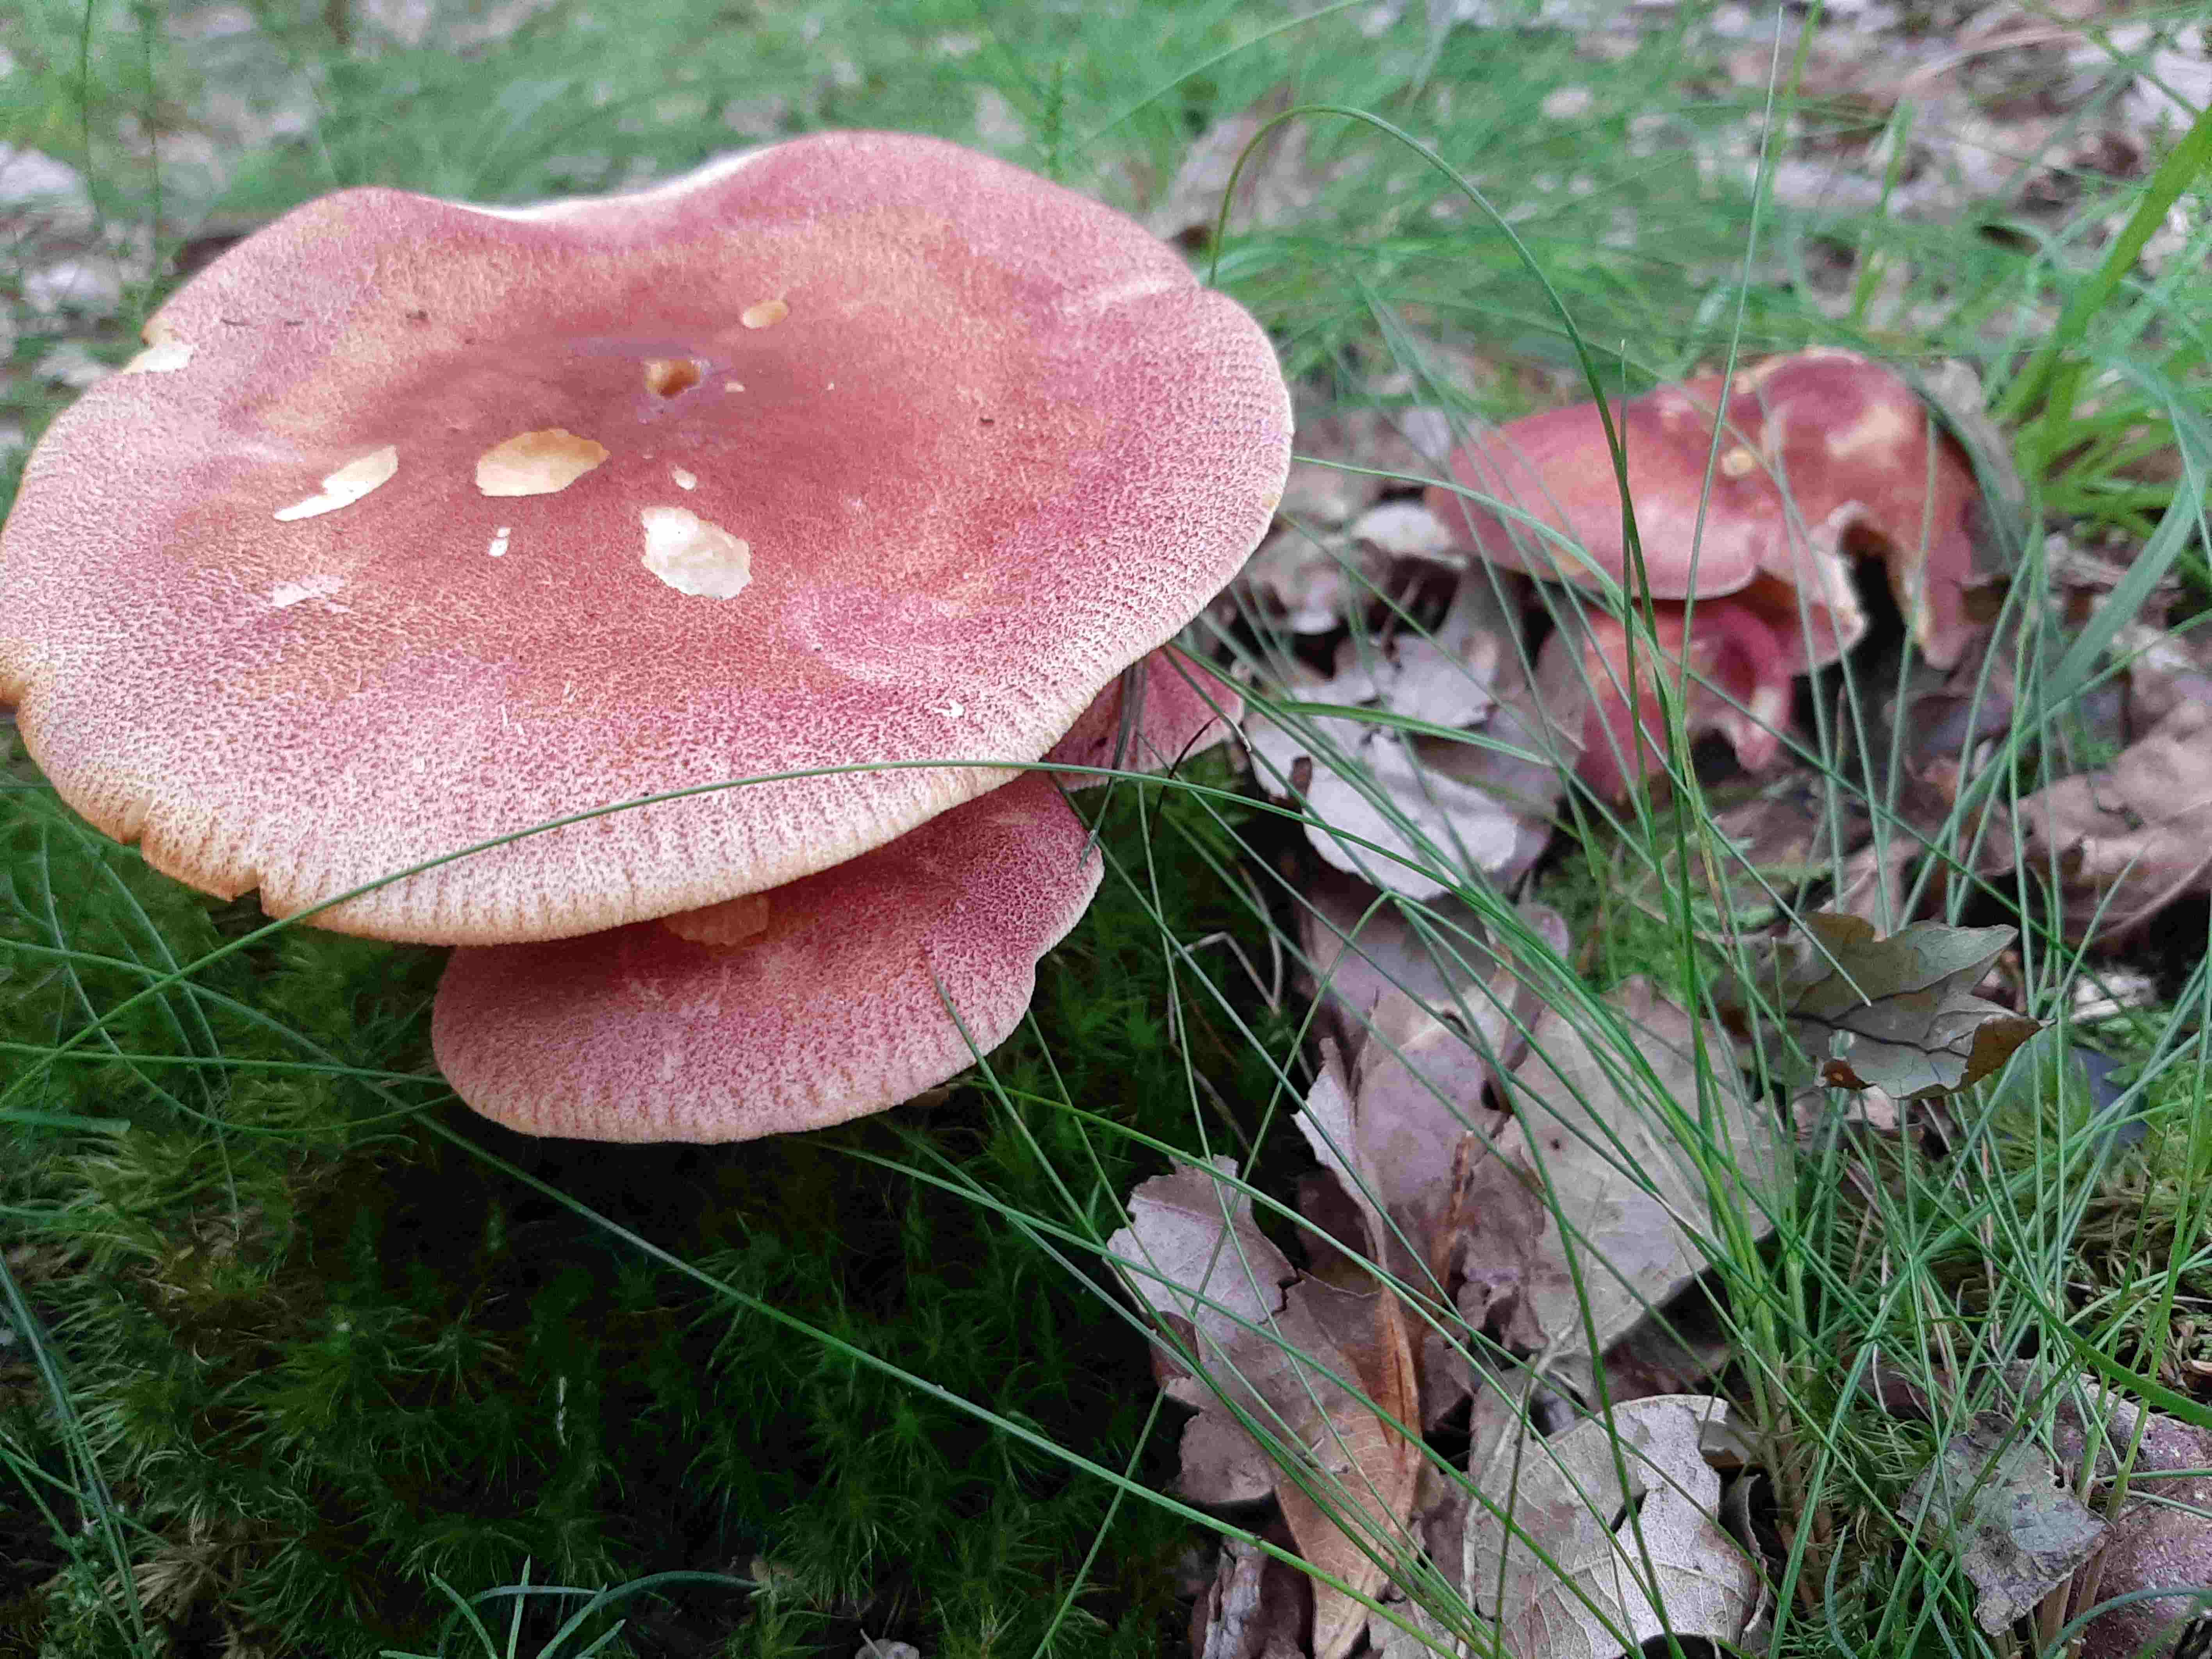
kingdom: Fungi
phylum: Basidiomycota
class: Agaricomycetes
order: Agaricales
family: Tricholomataceae
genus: Tricholomopsis
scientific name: Tricholomopsis rutilans
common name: purpur-væbnerhat
